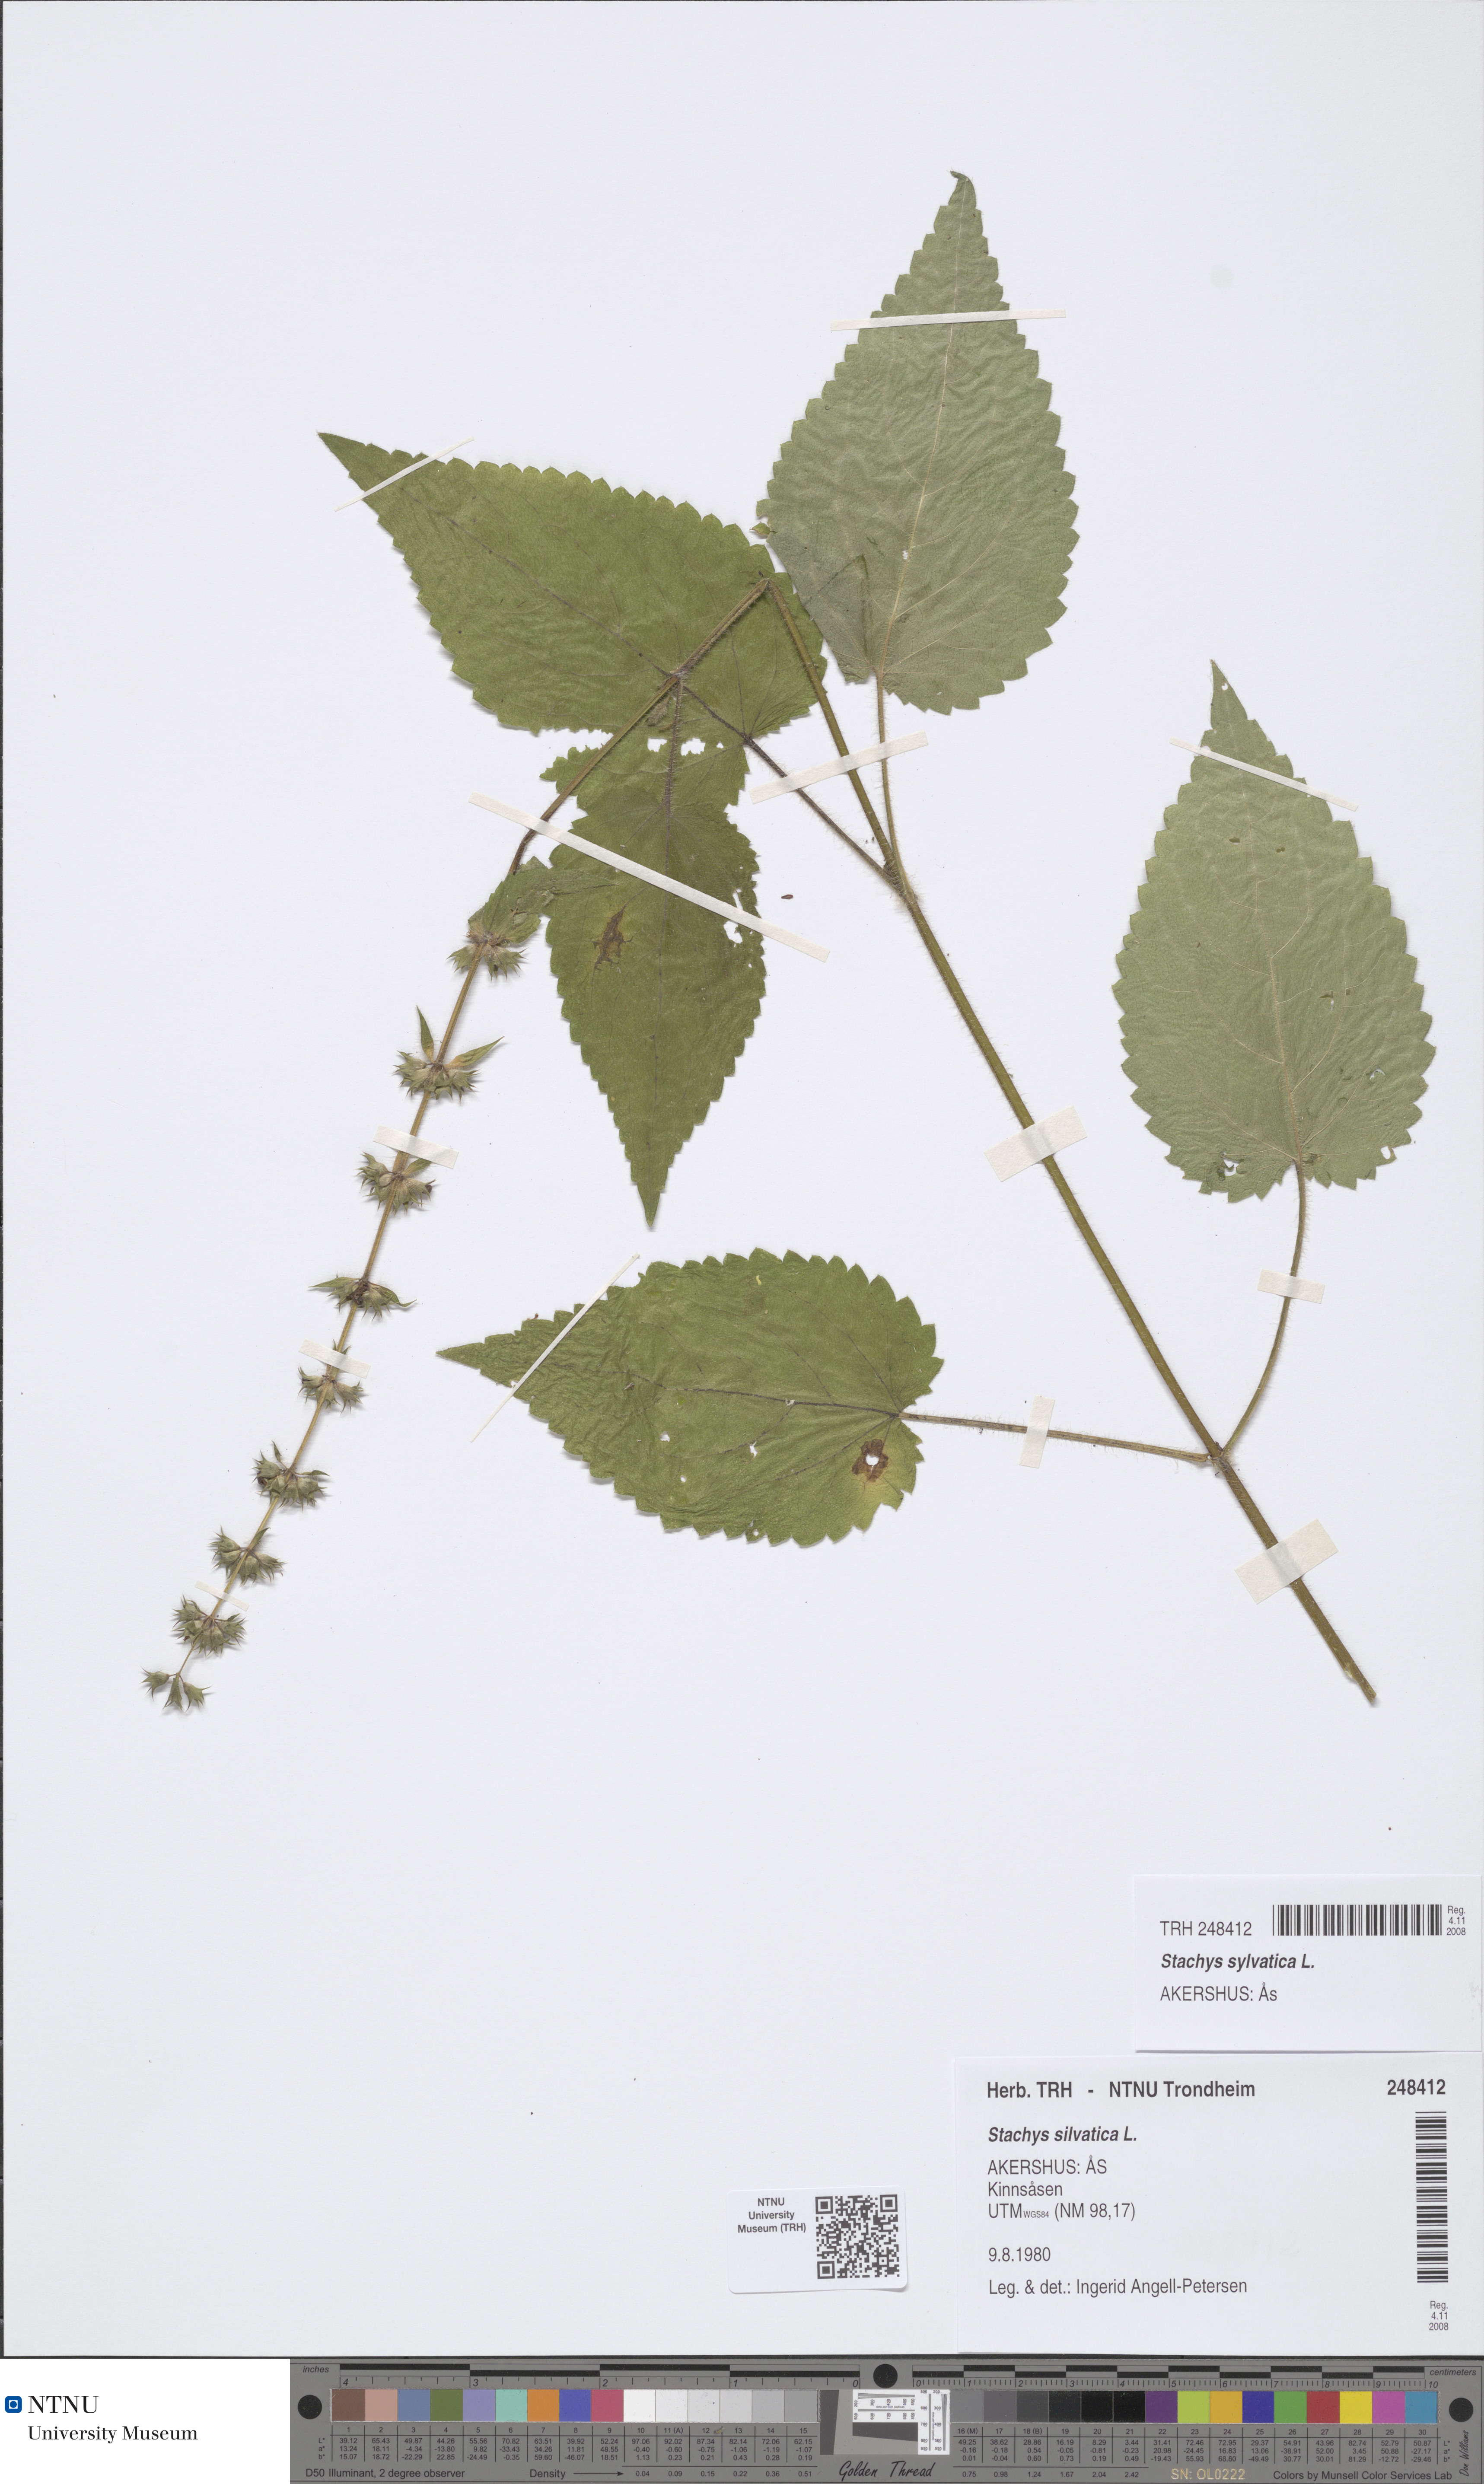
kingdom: Plantae
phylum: Tracheophyta
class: Magnoliopsida
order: Lamiales
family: Lamiaceae
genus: Stachys
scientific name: Stachys sylvatica
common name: Hedge woundwort
